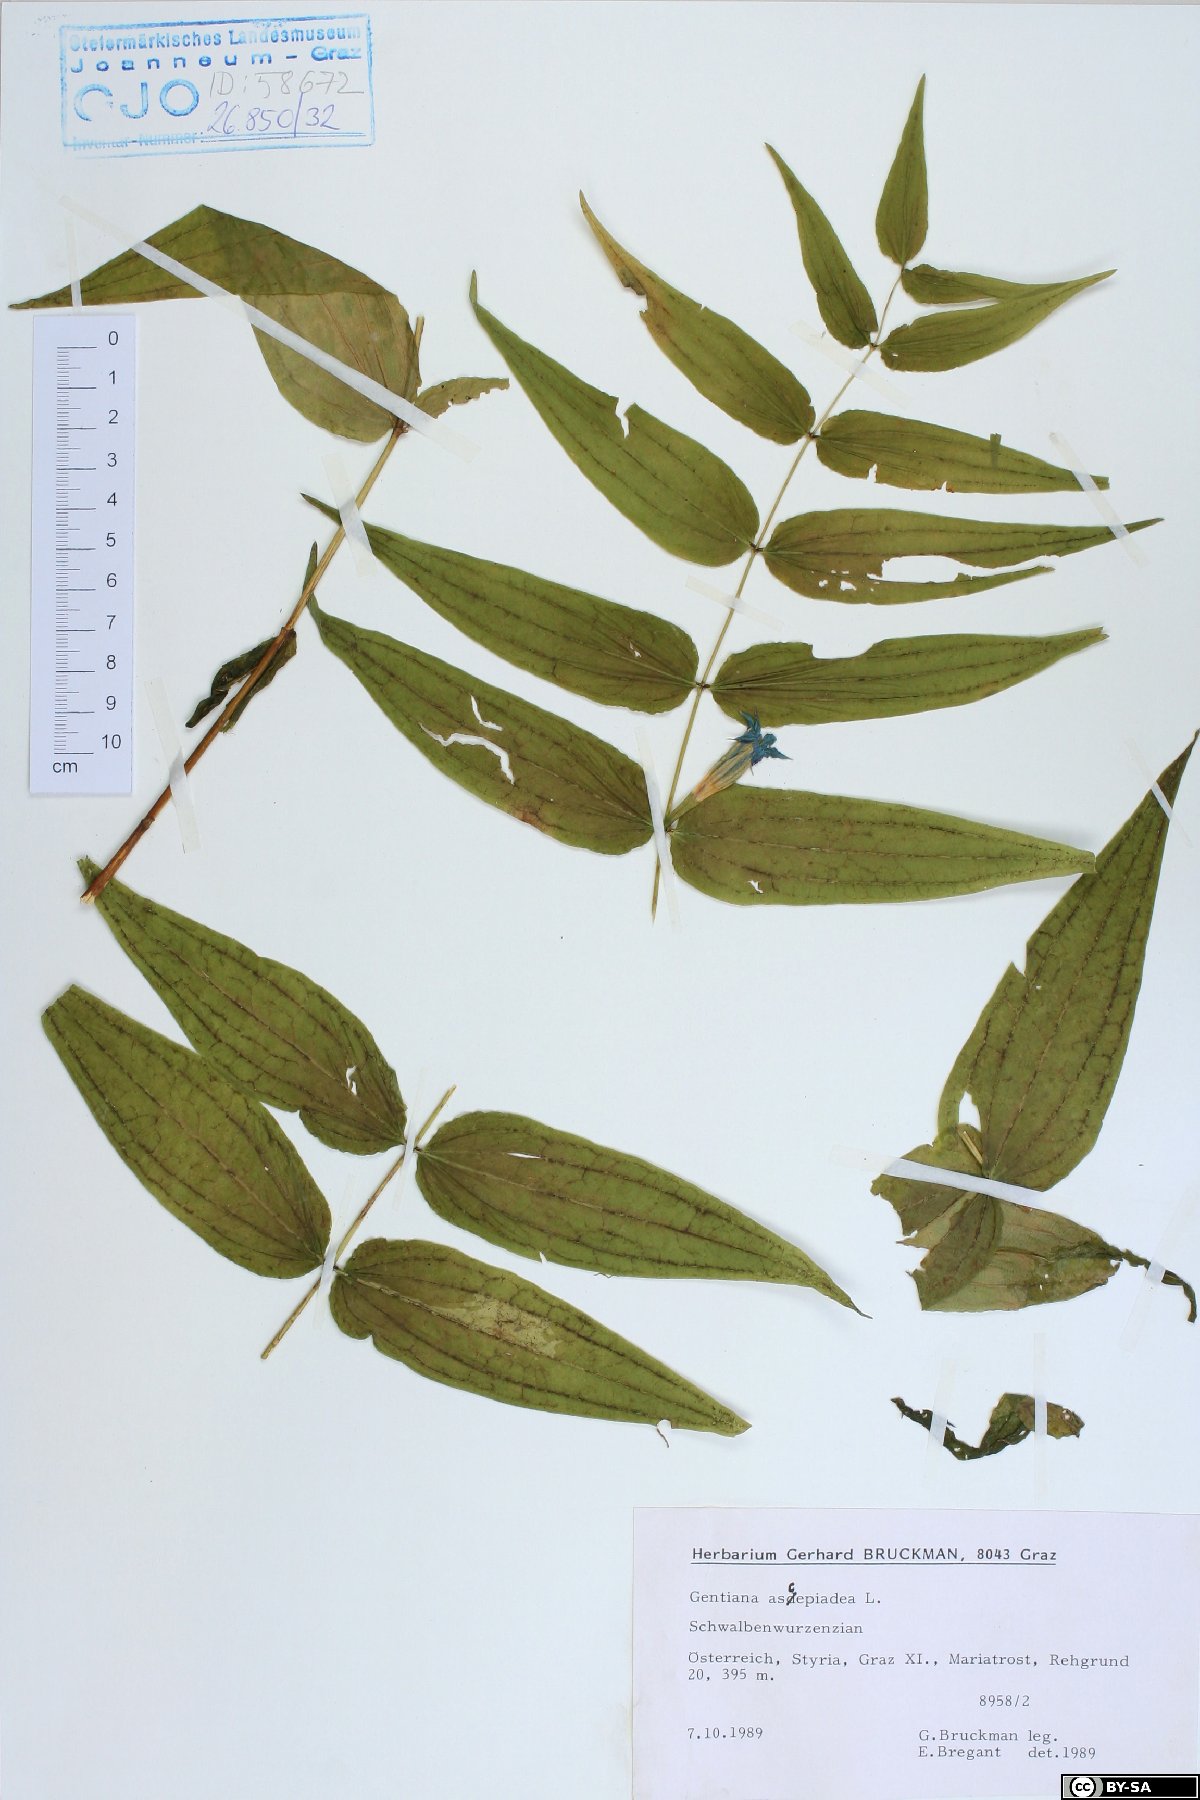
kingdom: Plantae
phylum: Tracheophyta
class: Magnoliopsida
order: Gentianales
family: Gentianaceae
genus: Gentiana
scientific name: Gentiana asclepiadea
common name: Willow gentian
